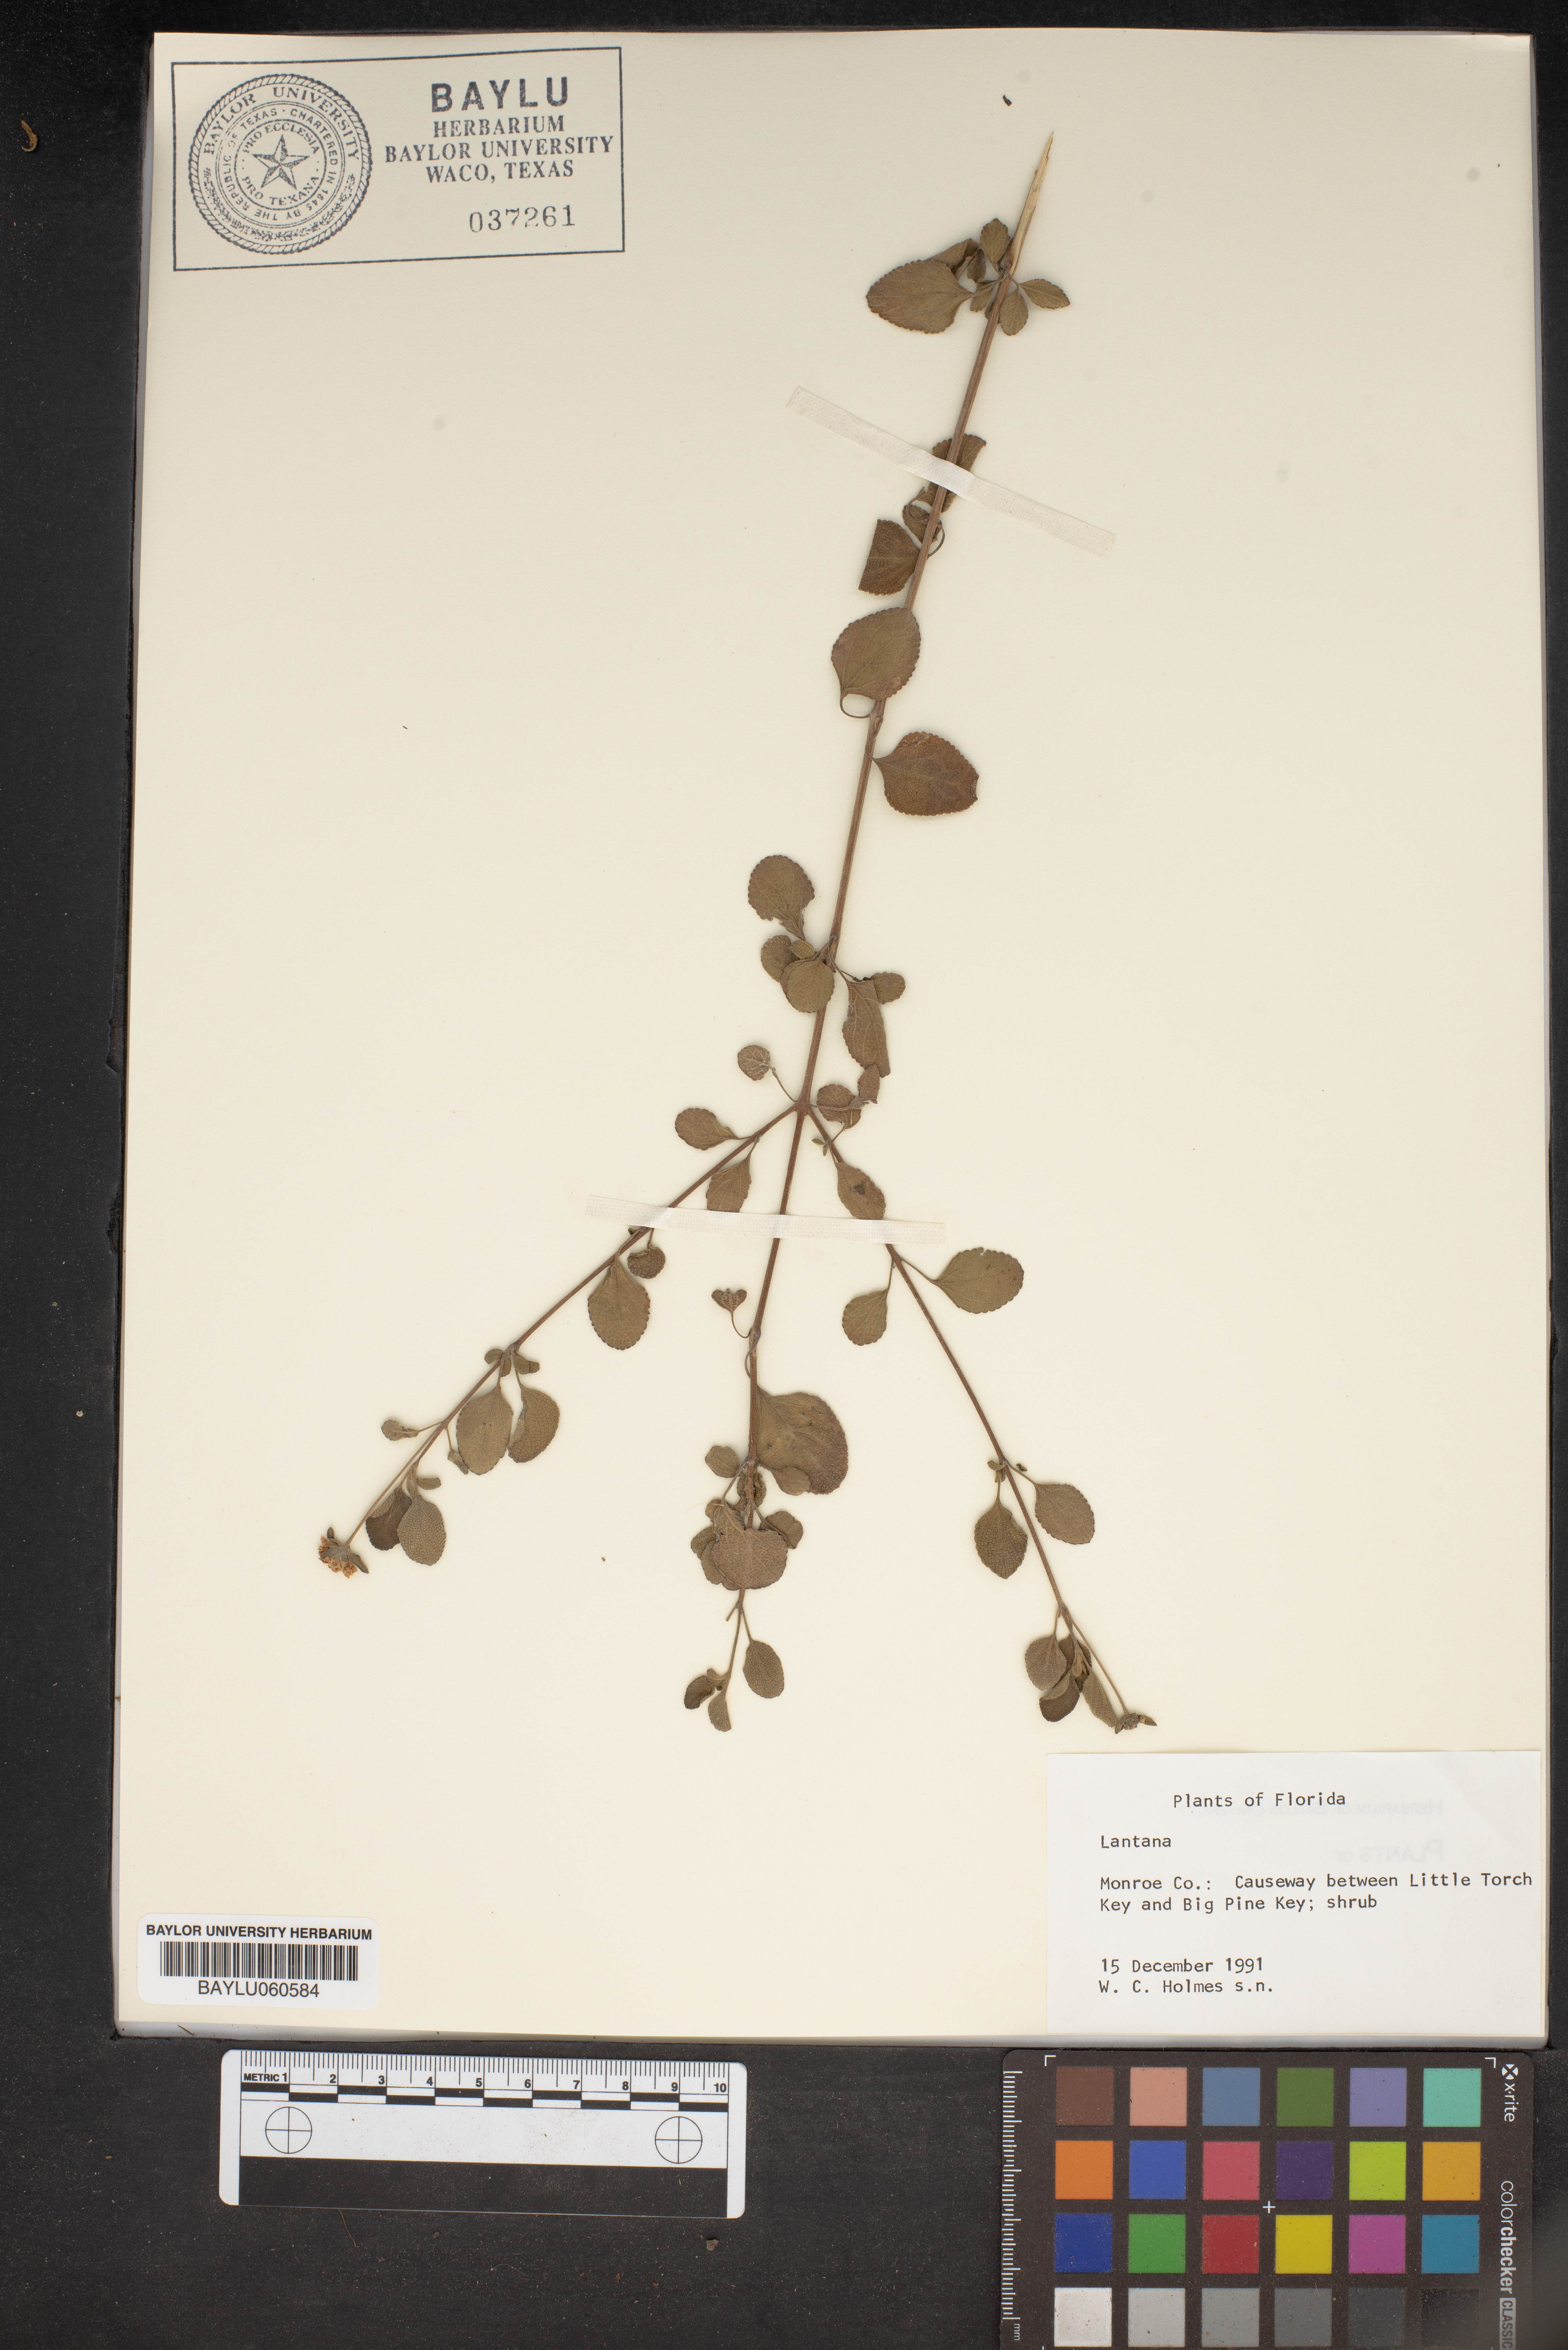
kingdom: Plantae
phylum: Tracheophyta
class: Magnoliopsida
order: Lamiales
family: Verbenaceae
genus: Lantana
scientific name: Lantana
